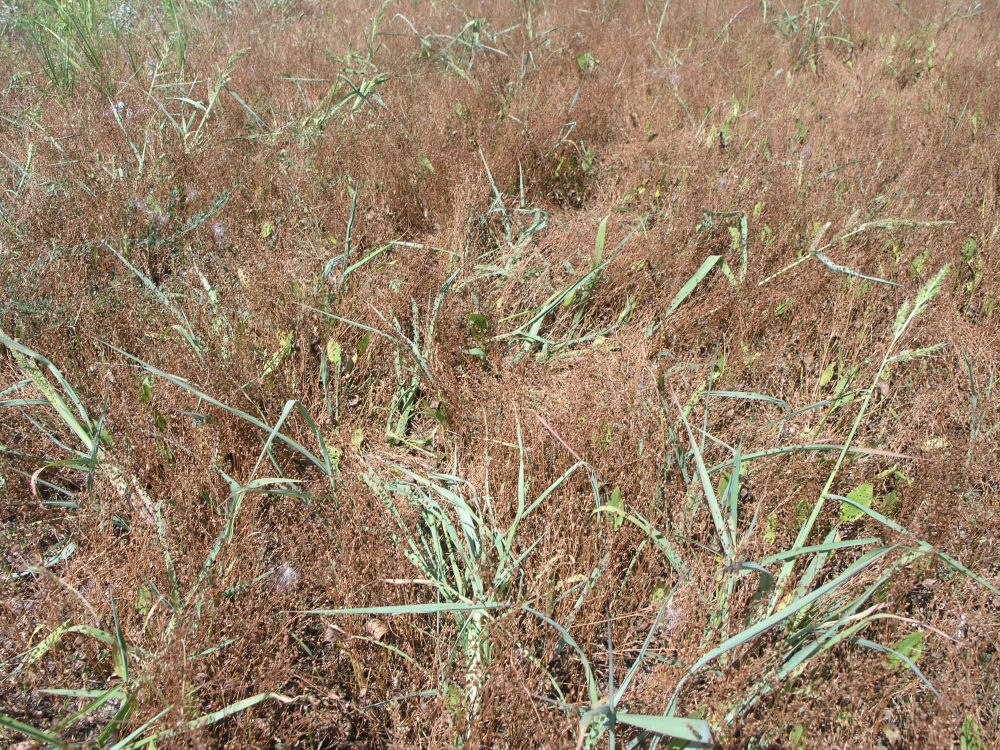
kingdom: Plantae
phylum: Tracheophyta
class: Liliopsida
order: Poales
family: Juncaceae
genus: Juncus
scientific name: Juncus tenageia
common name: Sand rush
